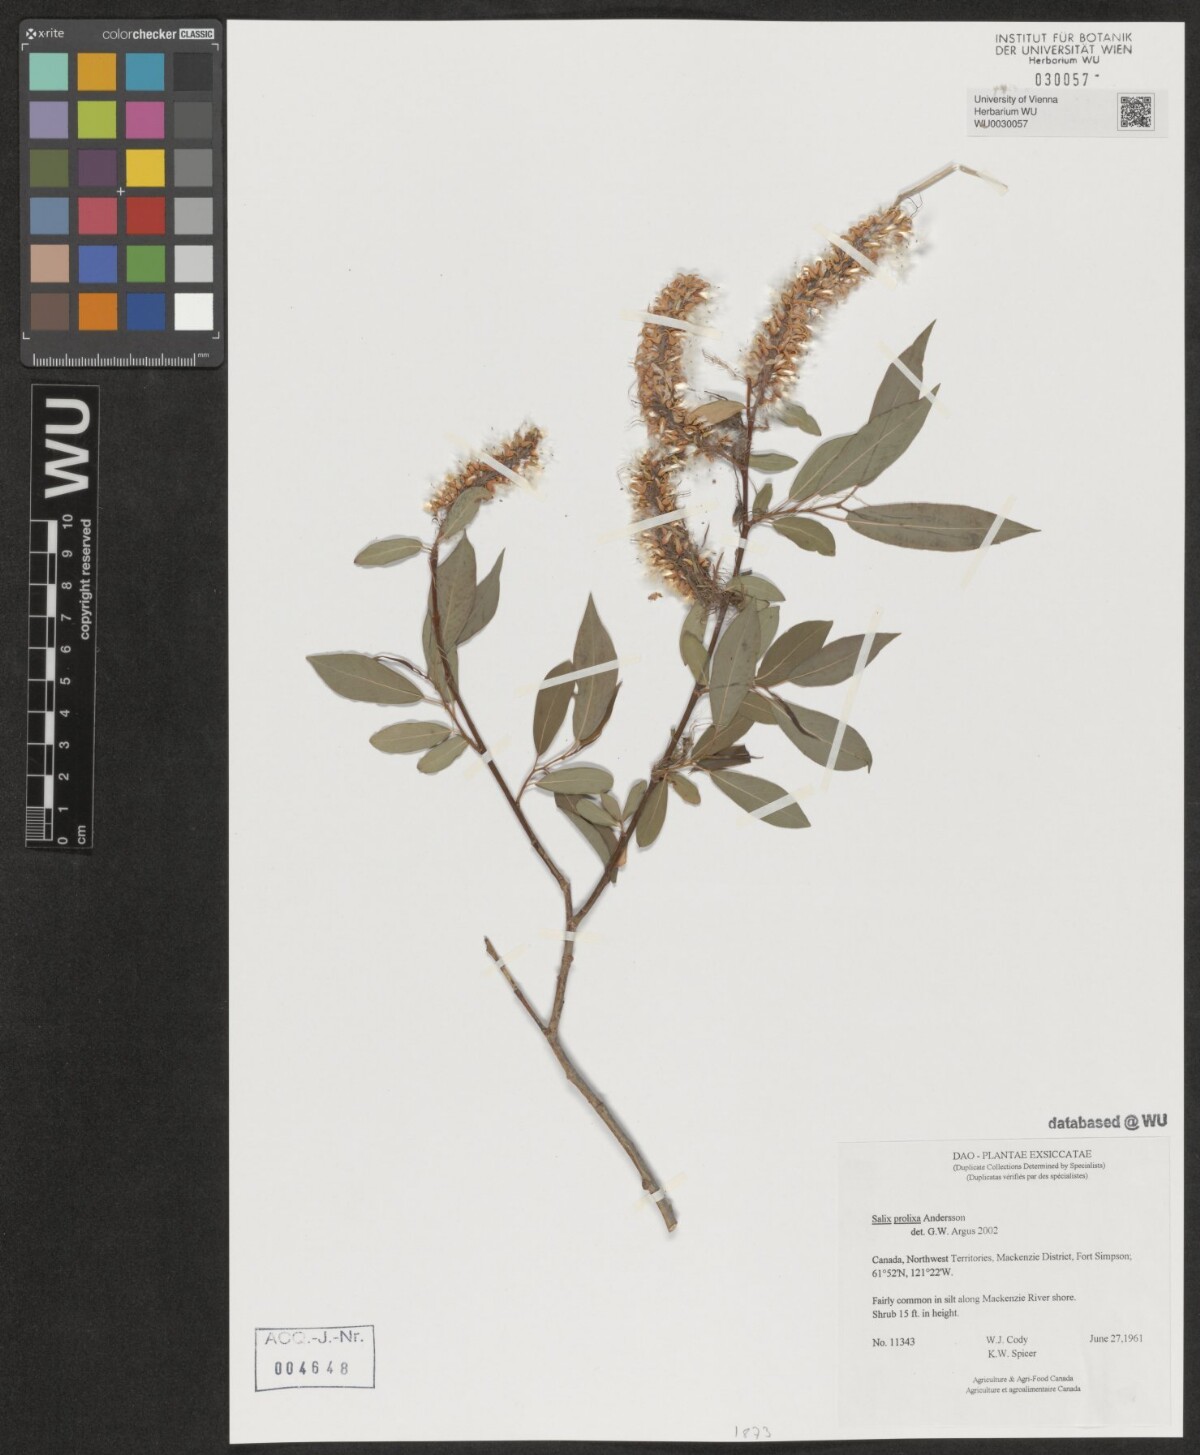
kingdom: Plantae
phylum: Tracheophyta
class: Magnoliopsida
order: Malpighiales
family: Salicaceae
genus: Salix
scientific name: Salix prolixa
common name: Mackenzie's willow
